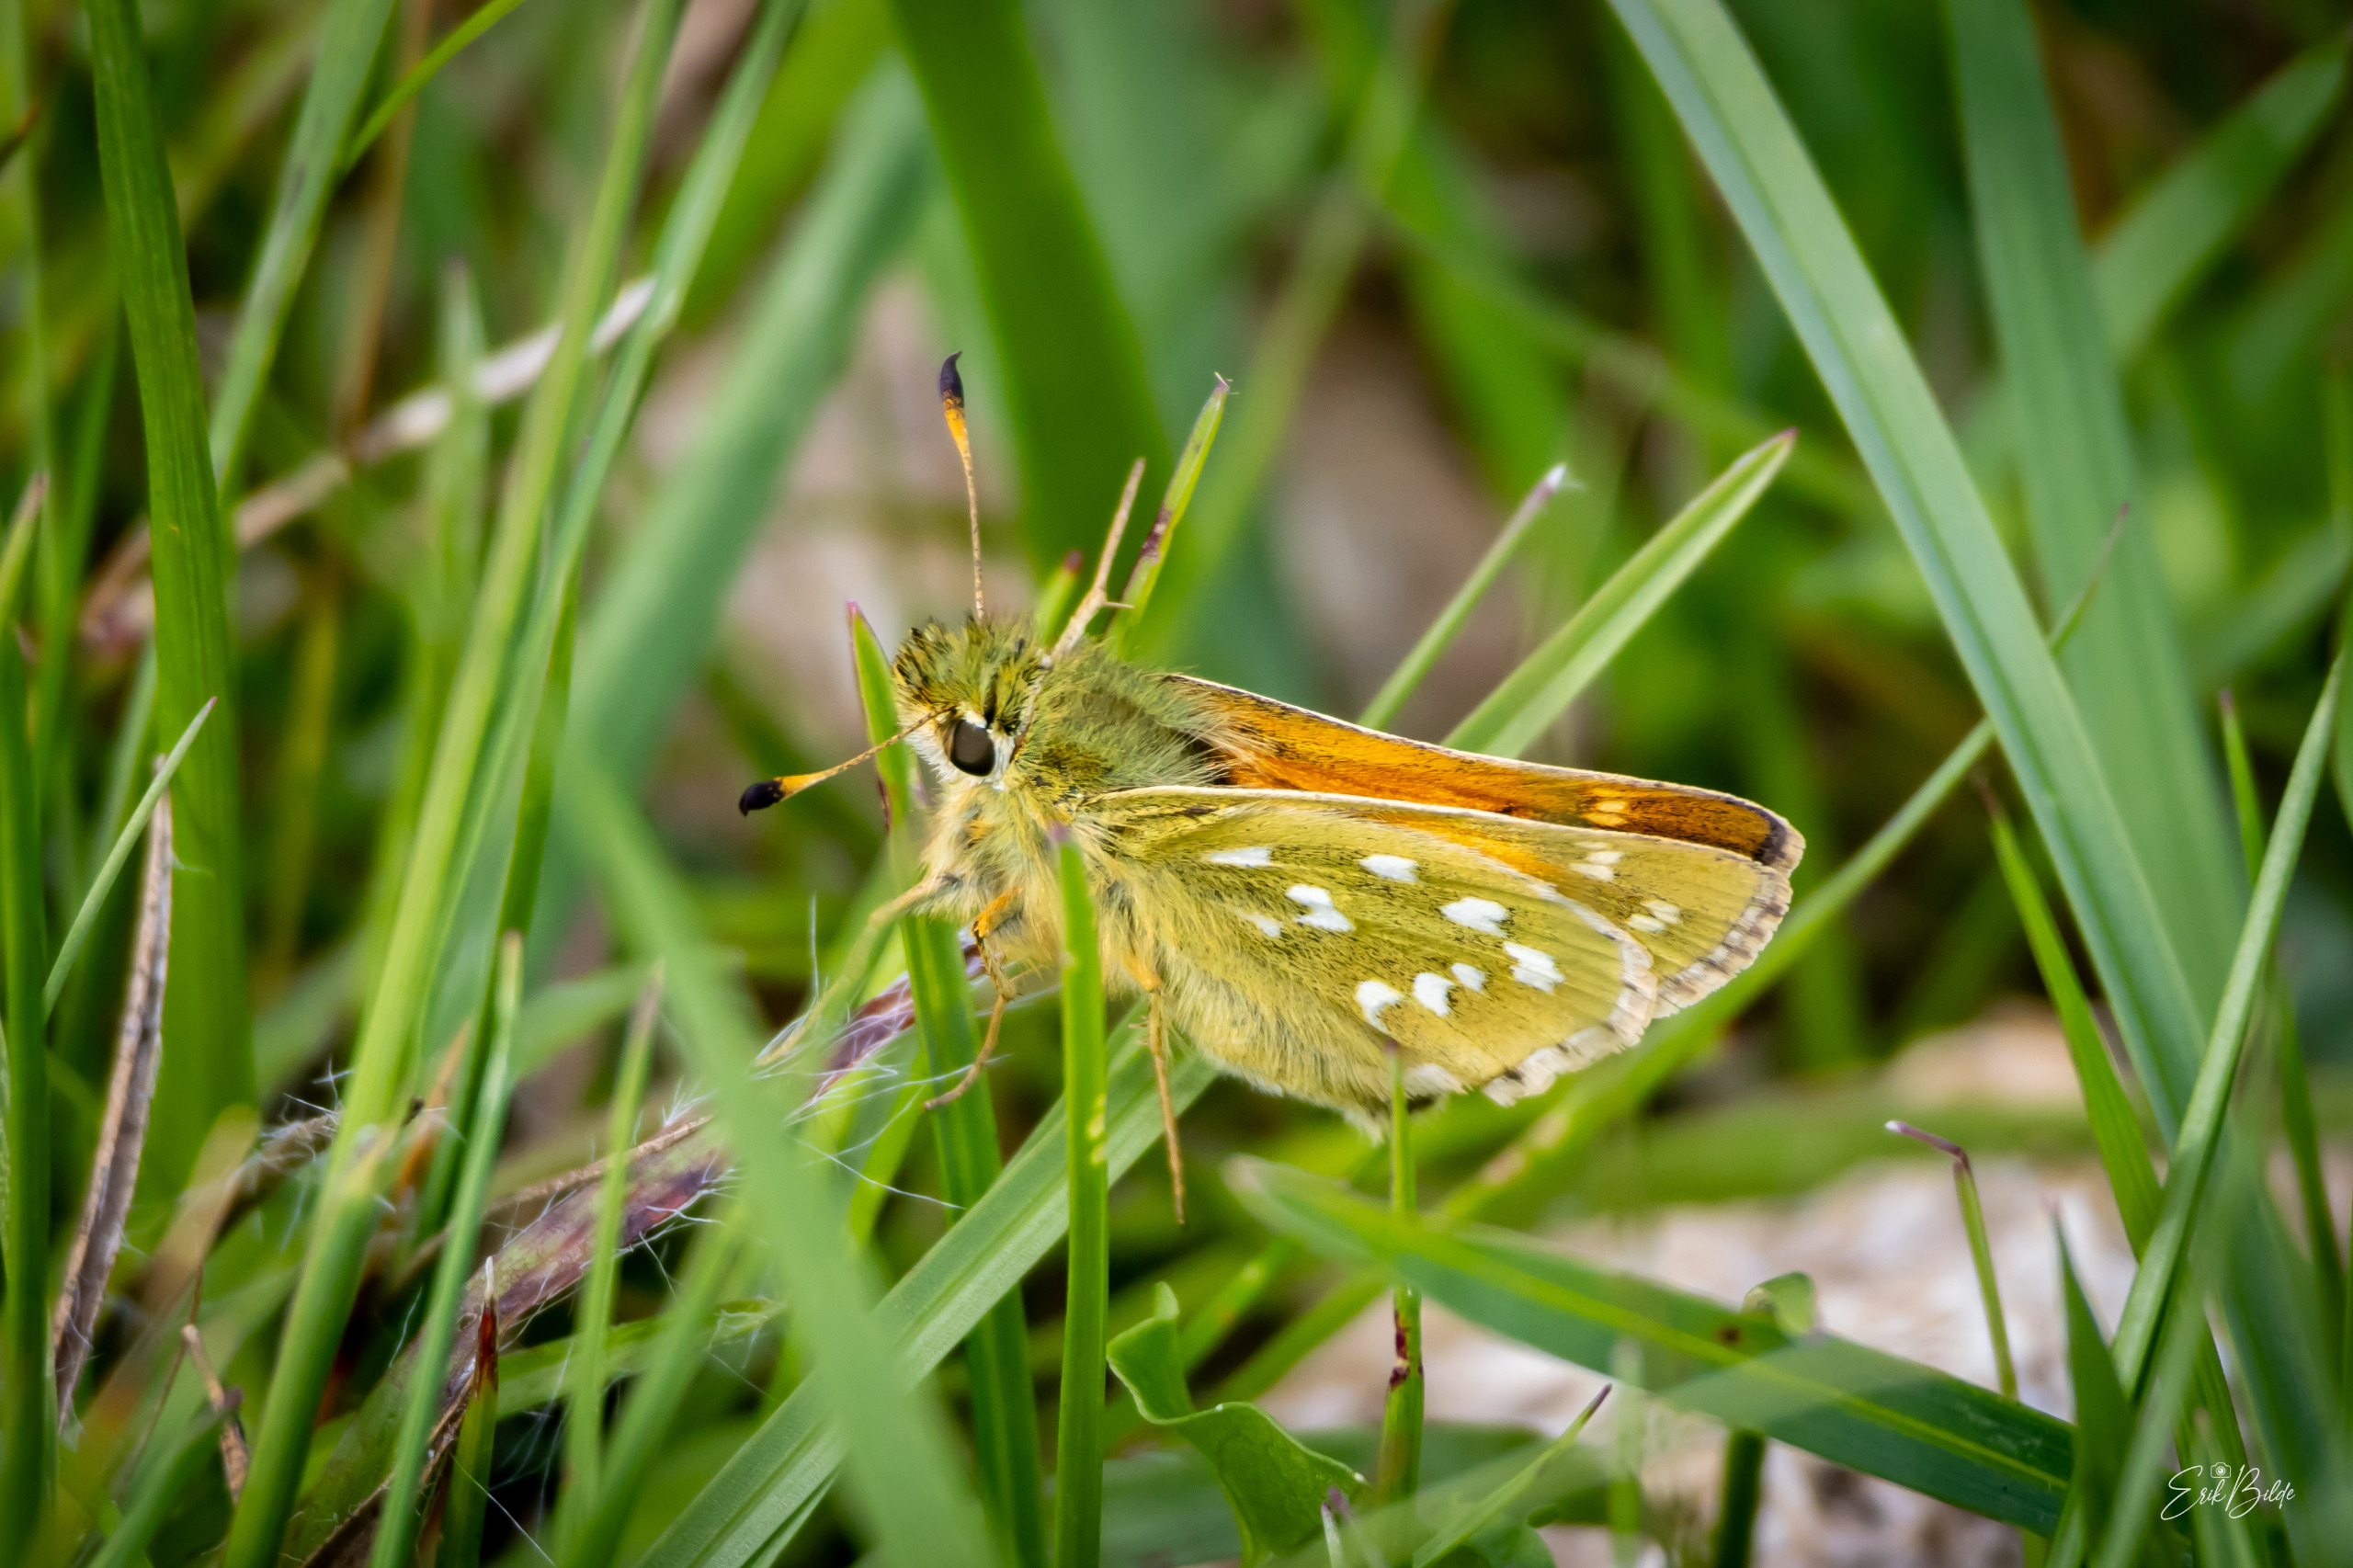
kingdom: Animalia
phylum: Arthropoda
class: Insecta
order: Lepidoptera
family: Hesperiidae
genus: Hesperia
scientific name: Hesperia comma
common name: Kommabredpande
